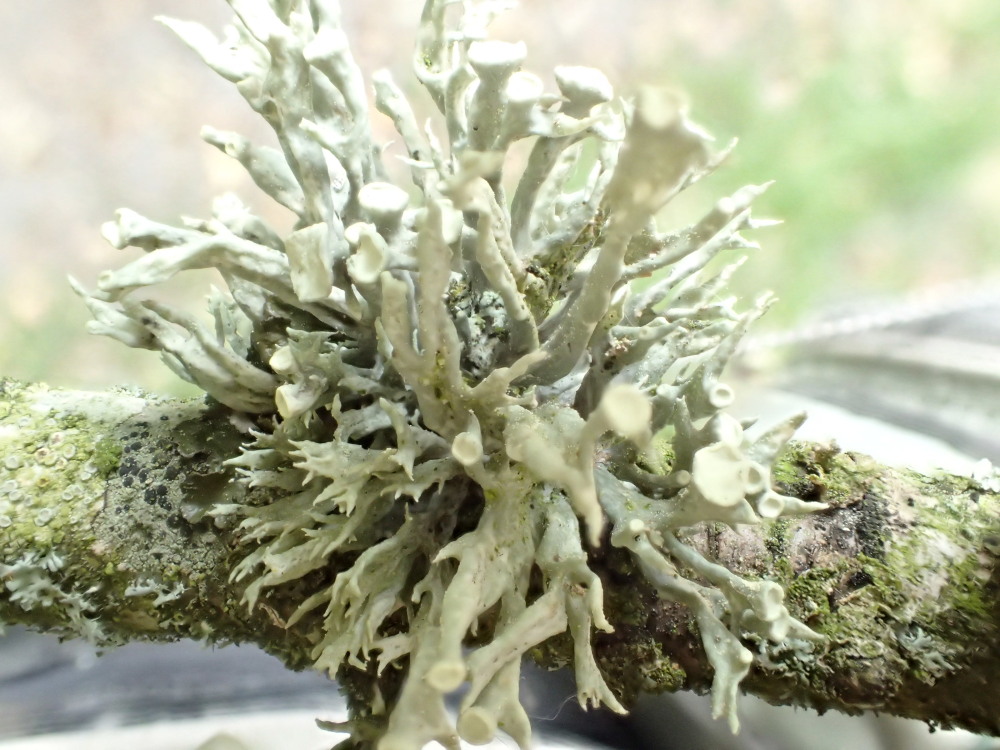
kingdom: Fungi
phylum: Ascomycota
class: Lecanoromycetes
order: Lecanorales
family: Ramalinaceae
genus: Ramalina
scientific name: Ramalina fastigiata
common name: tue-grenlav
